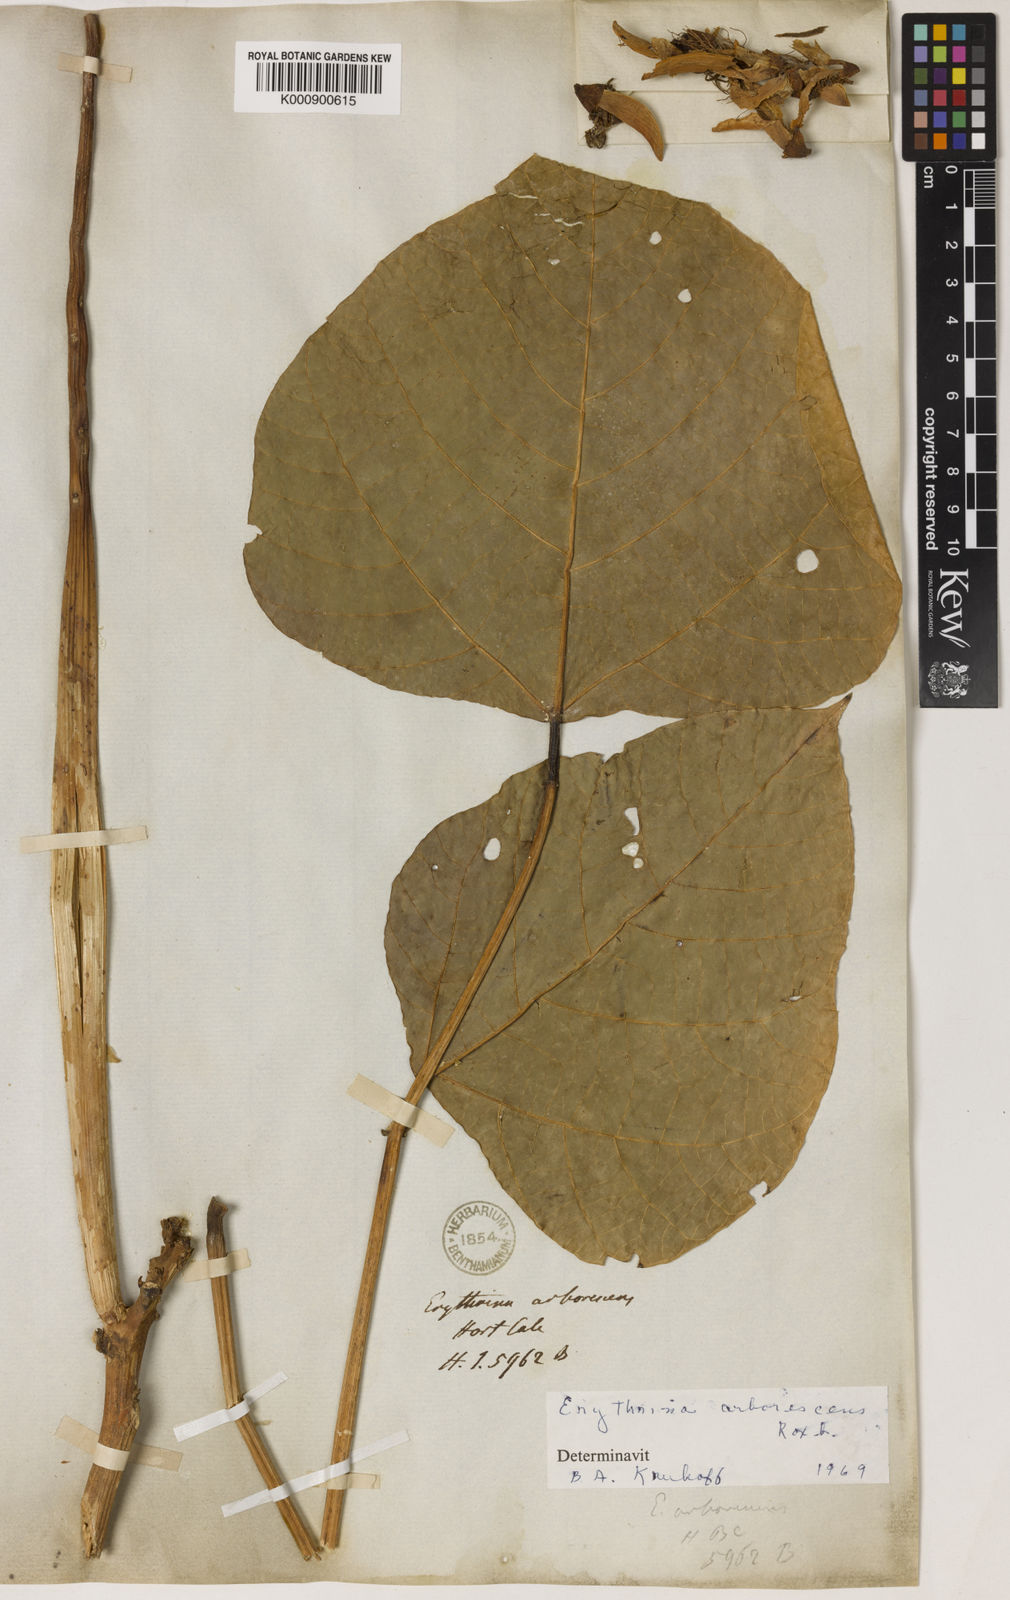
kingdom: Plantae
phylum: Tracheophyta
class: Magnoliopsida
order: Fabales
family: Fabaceae
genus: Erythrina
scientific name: Erythrina arborescens
